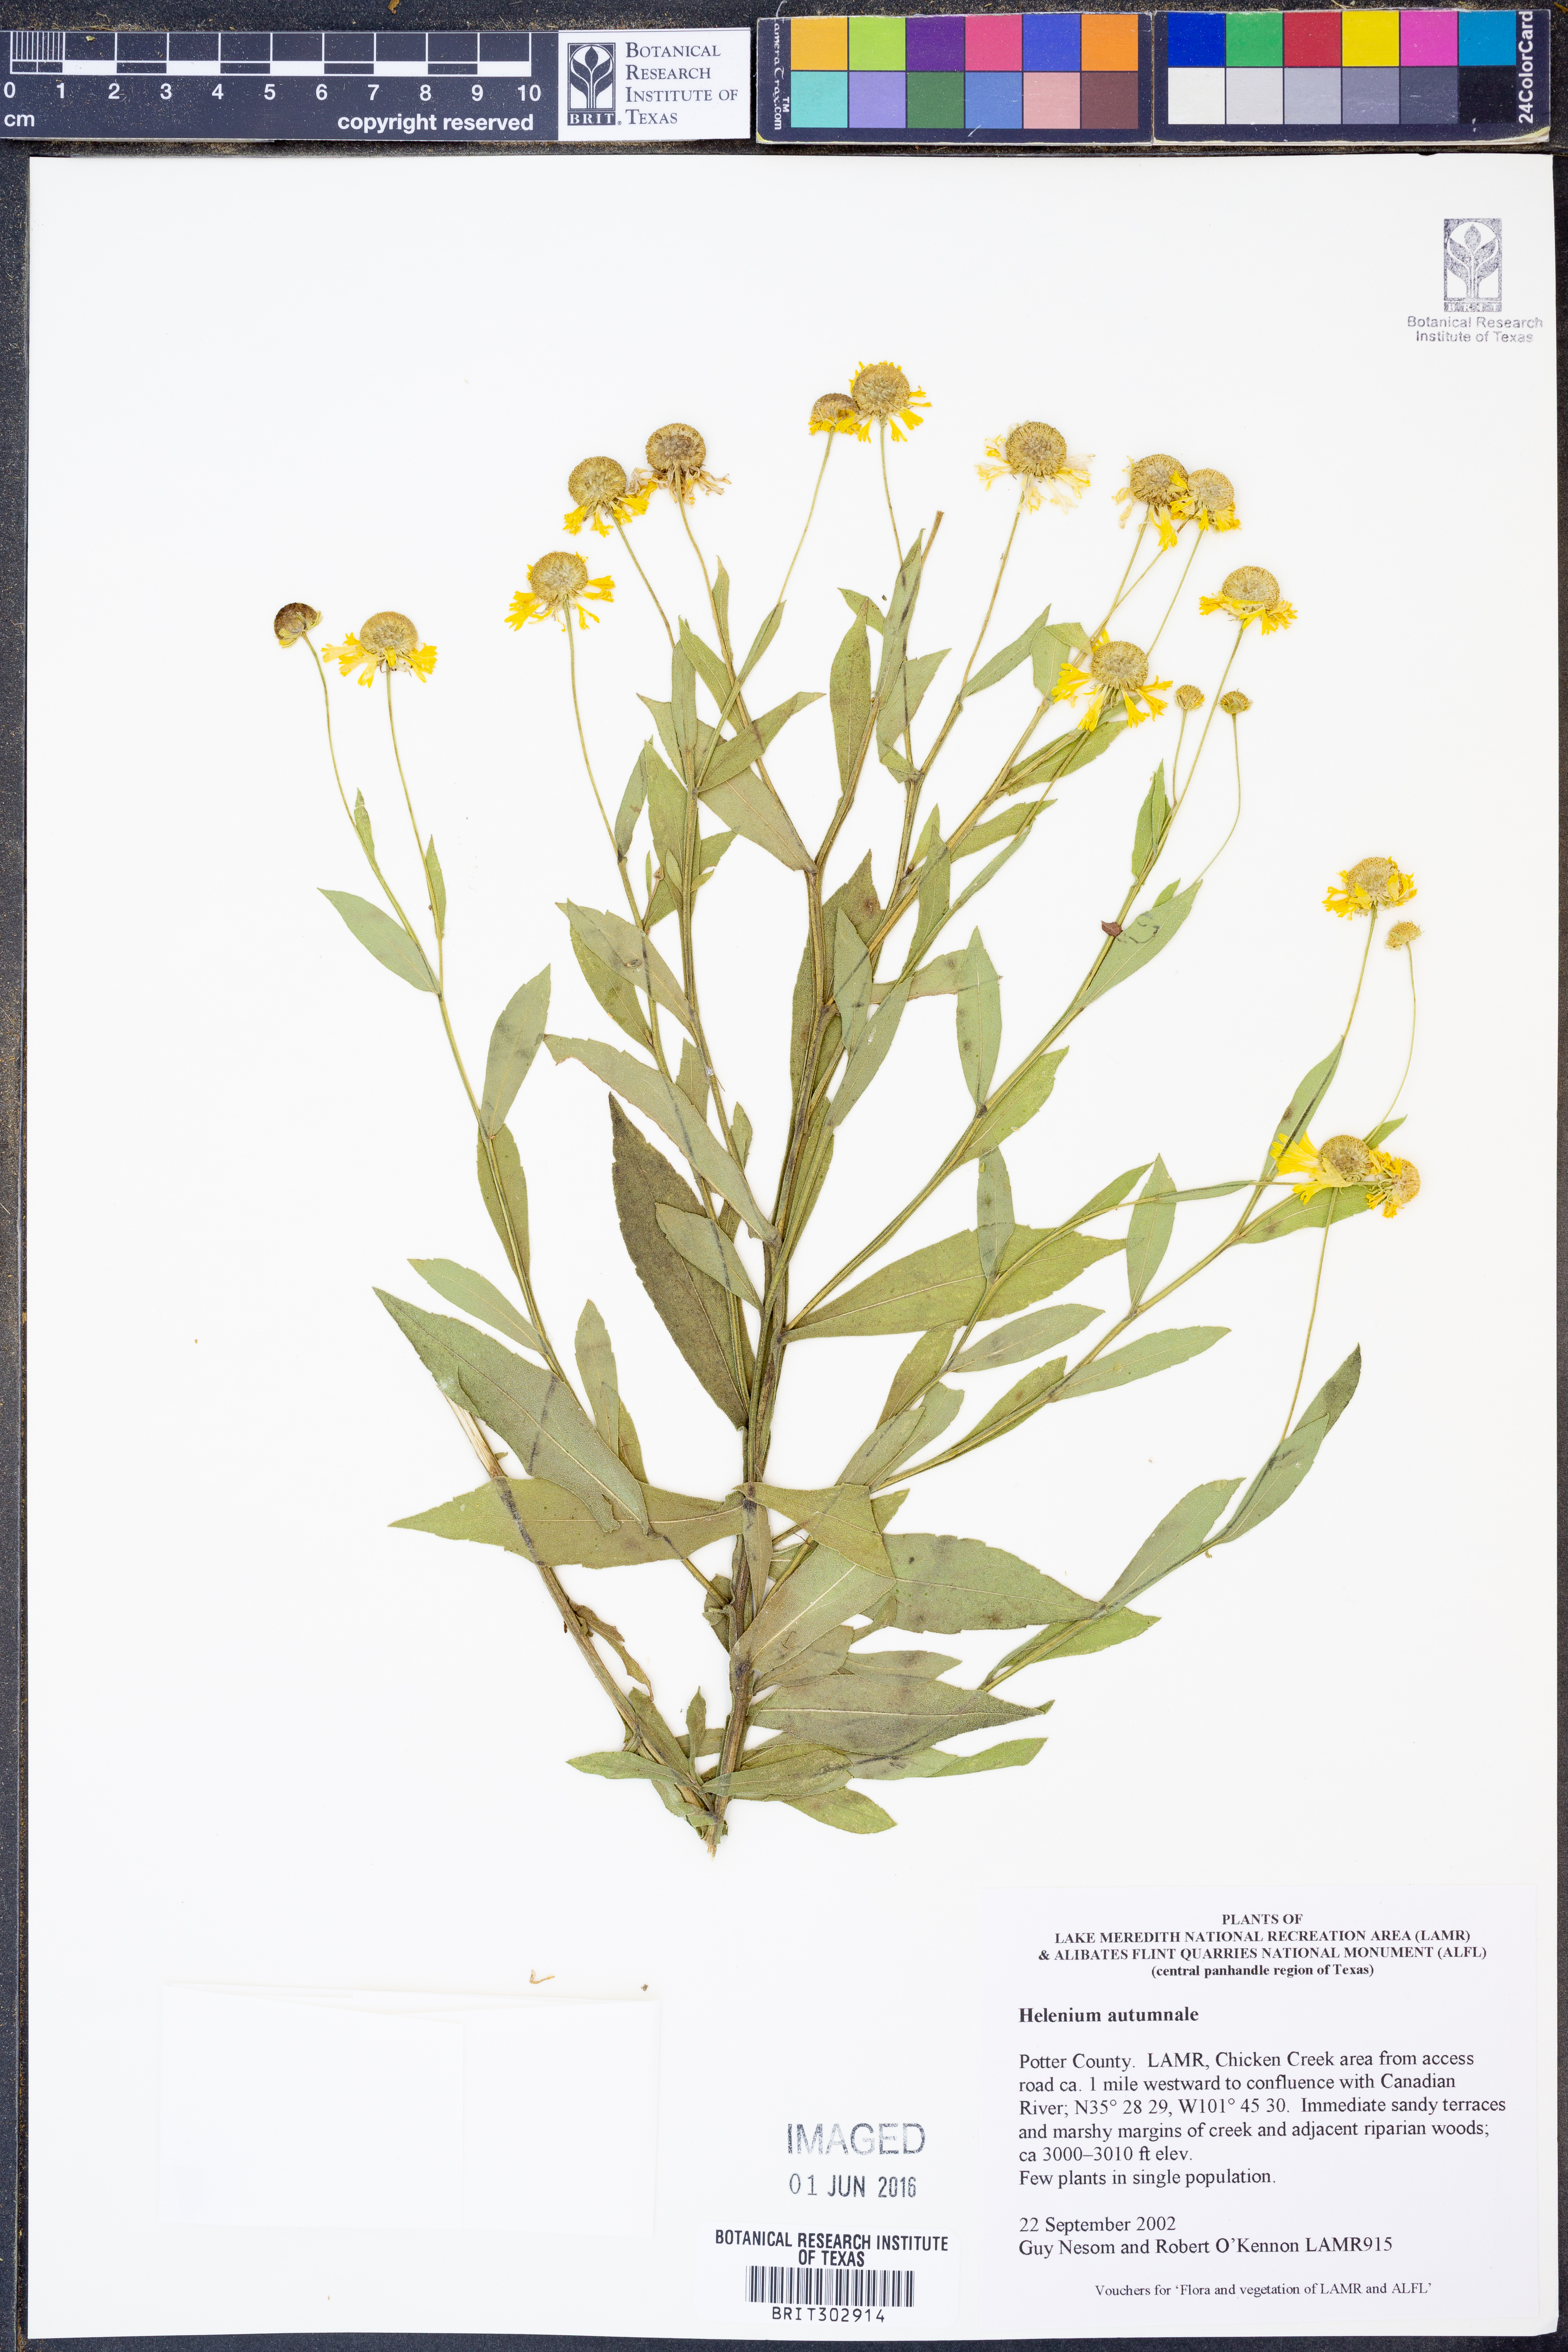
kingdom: Plantae
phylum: Tracheophyta
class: Magnoliopsida
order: Asterales
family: Asteraceae
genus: Helenium
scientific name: Helenium autumnale
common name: Sneezeweed
